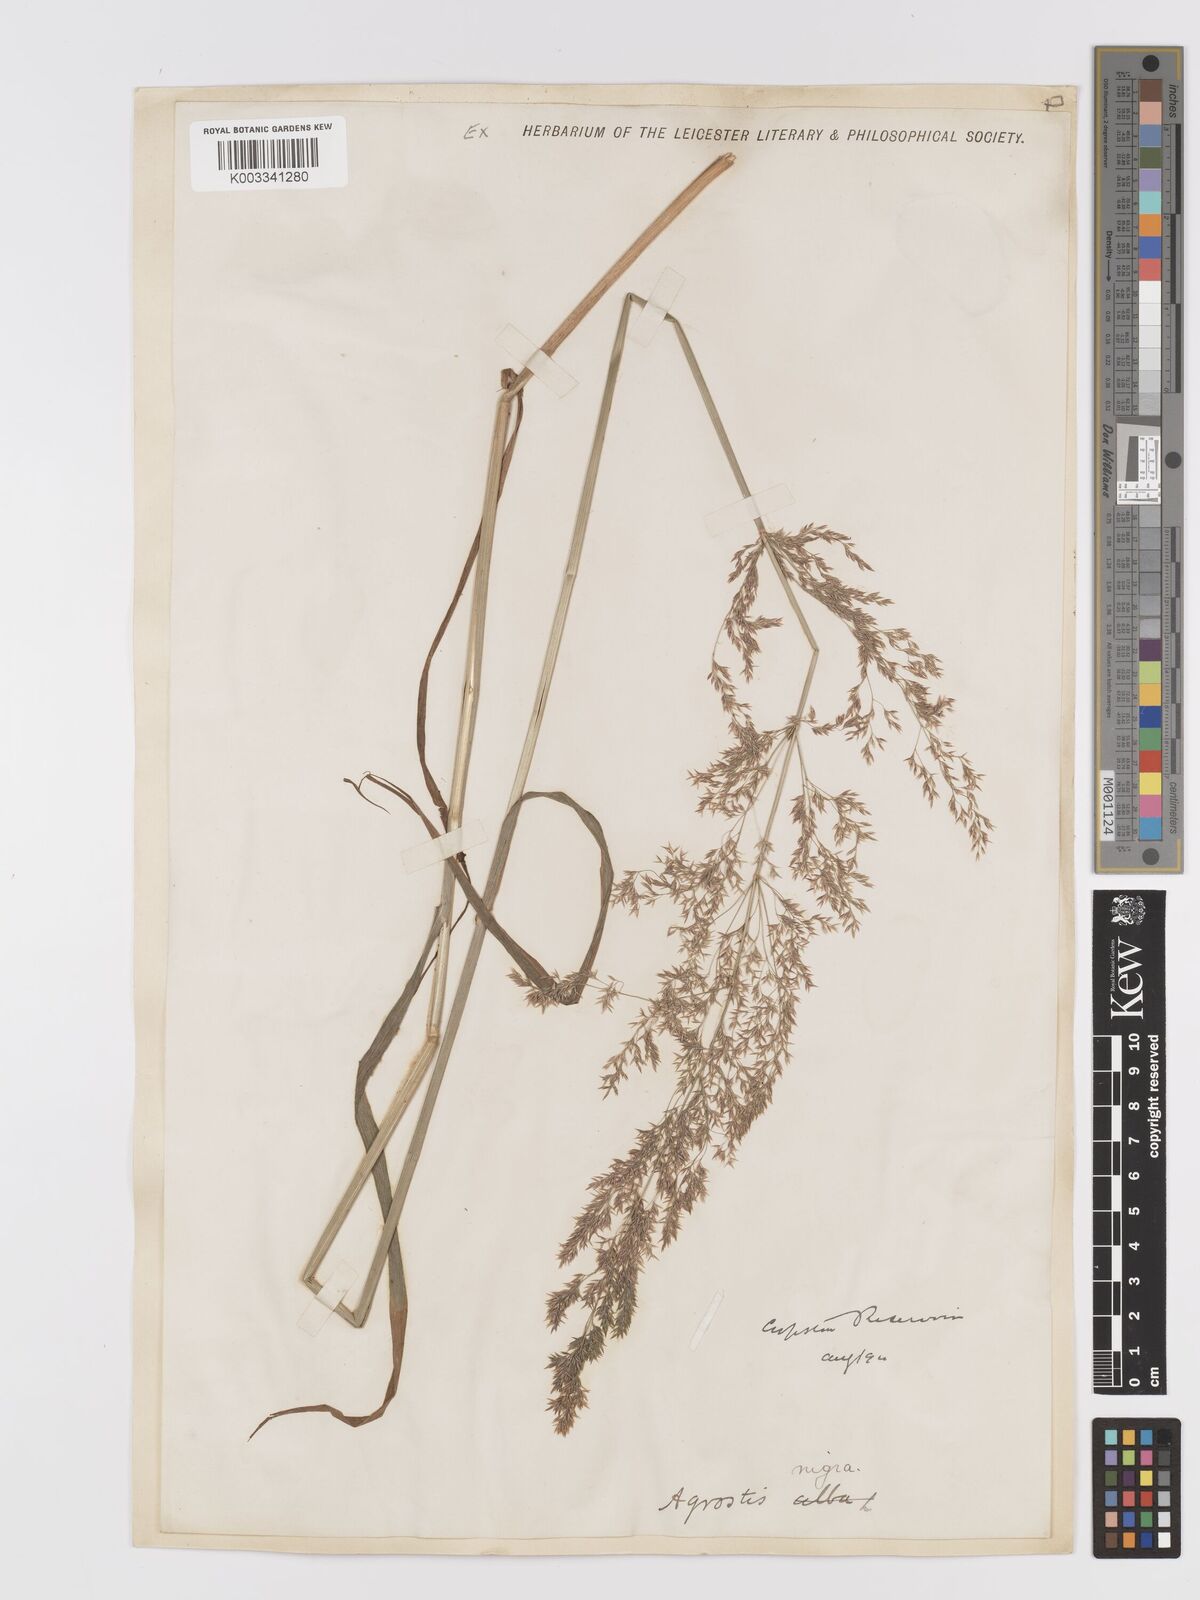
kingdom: Plantae
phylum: Tracheophyta
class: Liliopsida
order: Poales
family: Poaceae
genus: Agrostis
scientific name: Agrostis gigantea
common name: Black bent
